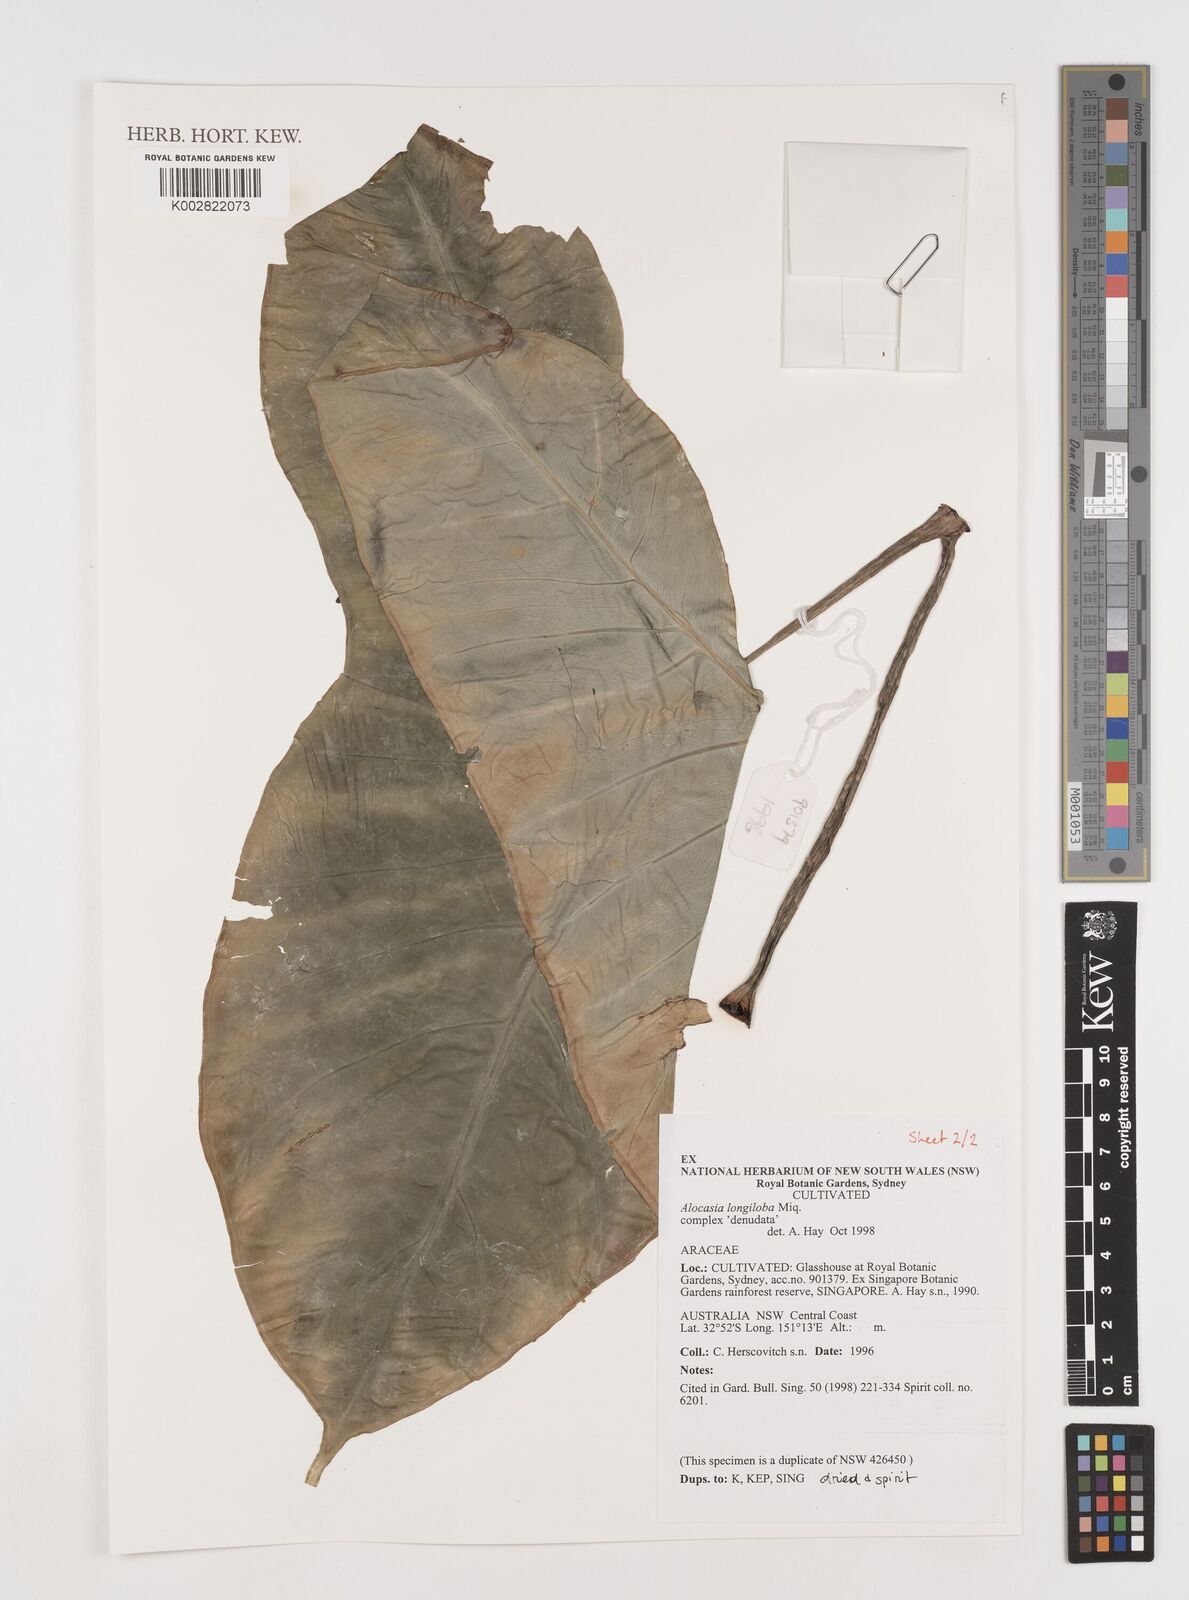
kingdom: Plantae
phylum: Tracheophyta
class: Liliopsida
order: Alismatales
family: Araceae
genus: Alocasia
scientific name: Alocasia longiloba
